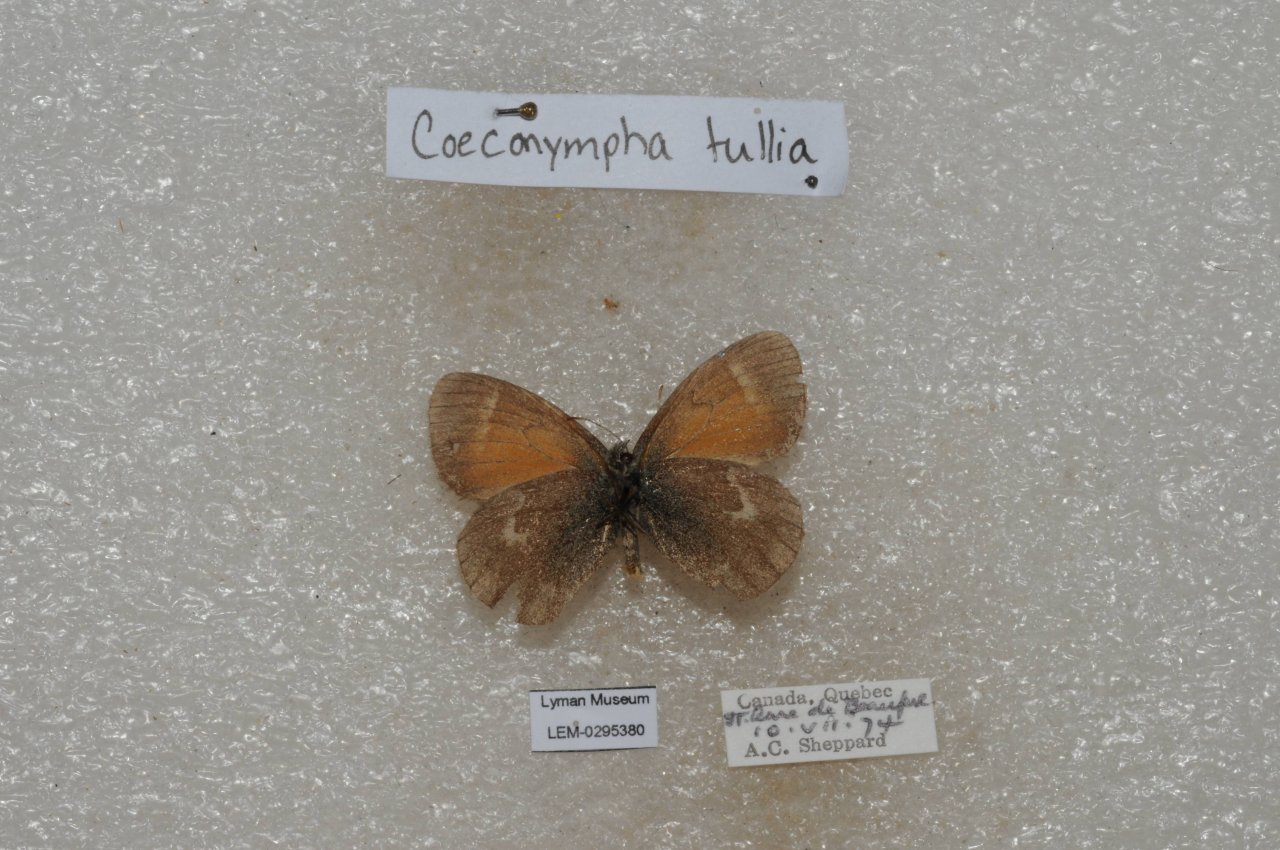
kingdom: Animalia
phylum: Arthropoda
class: Insecta
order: Lepidoptera
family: Nymphalidae
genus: Coenonympha
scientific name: Coenonympha tullia
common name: Large Heath
